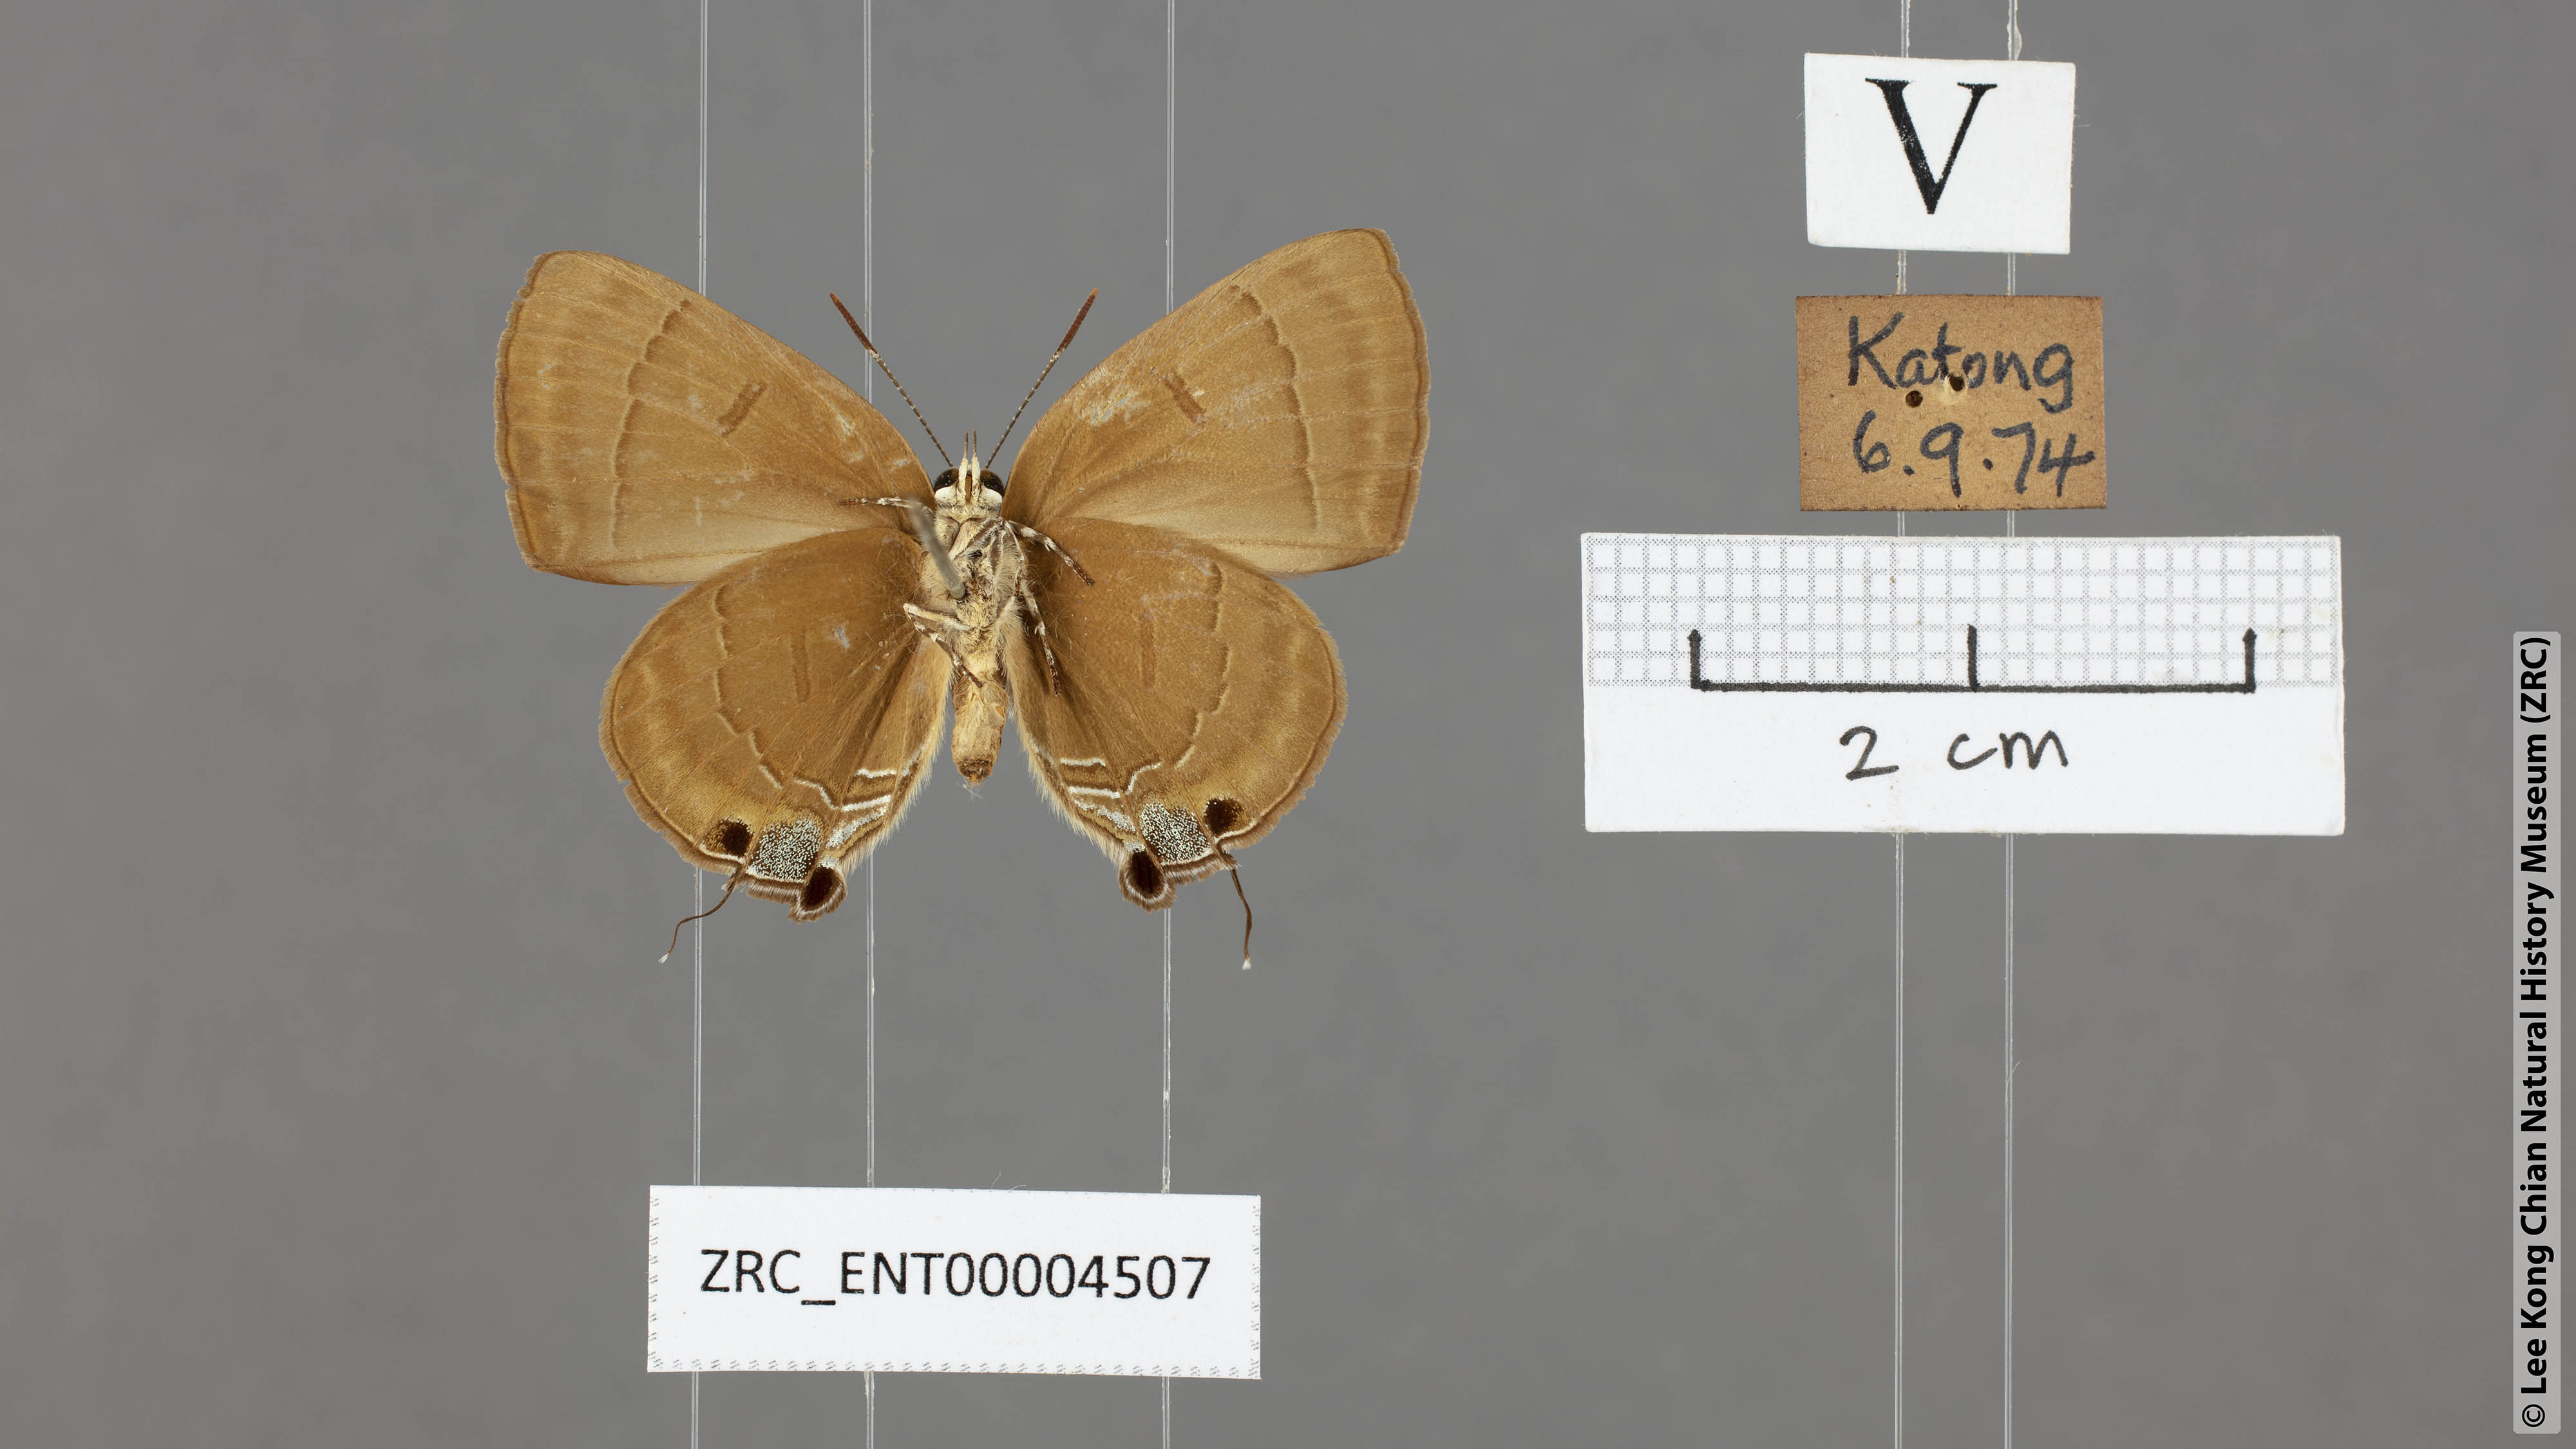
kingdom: Animalia
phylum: Arthropoda
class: Insecta
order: Lepidoptera
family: Lycaenidae
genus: Rapala
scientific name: Rapala pheretima
